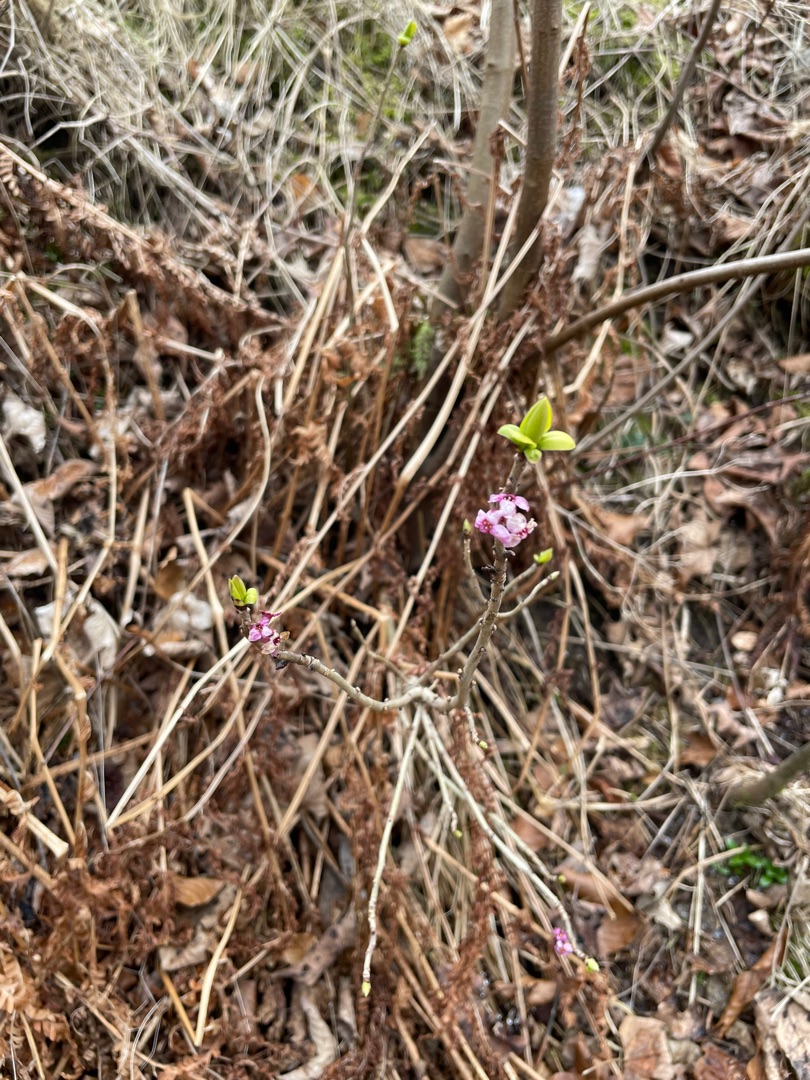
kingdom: Plantae
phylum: Tracheophyta
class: Magnoliopsida
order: Malvales
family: Thymelaeaceae
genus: Daphne
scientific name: Daphne mezereum
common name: Pebertræ
